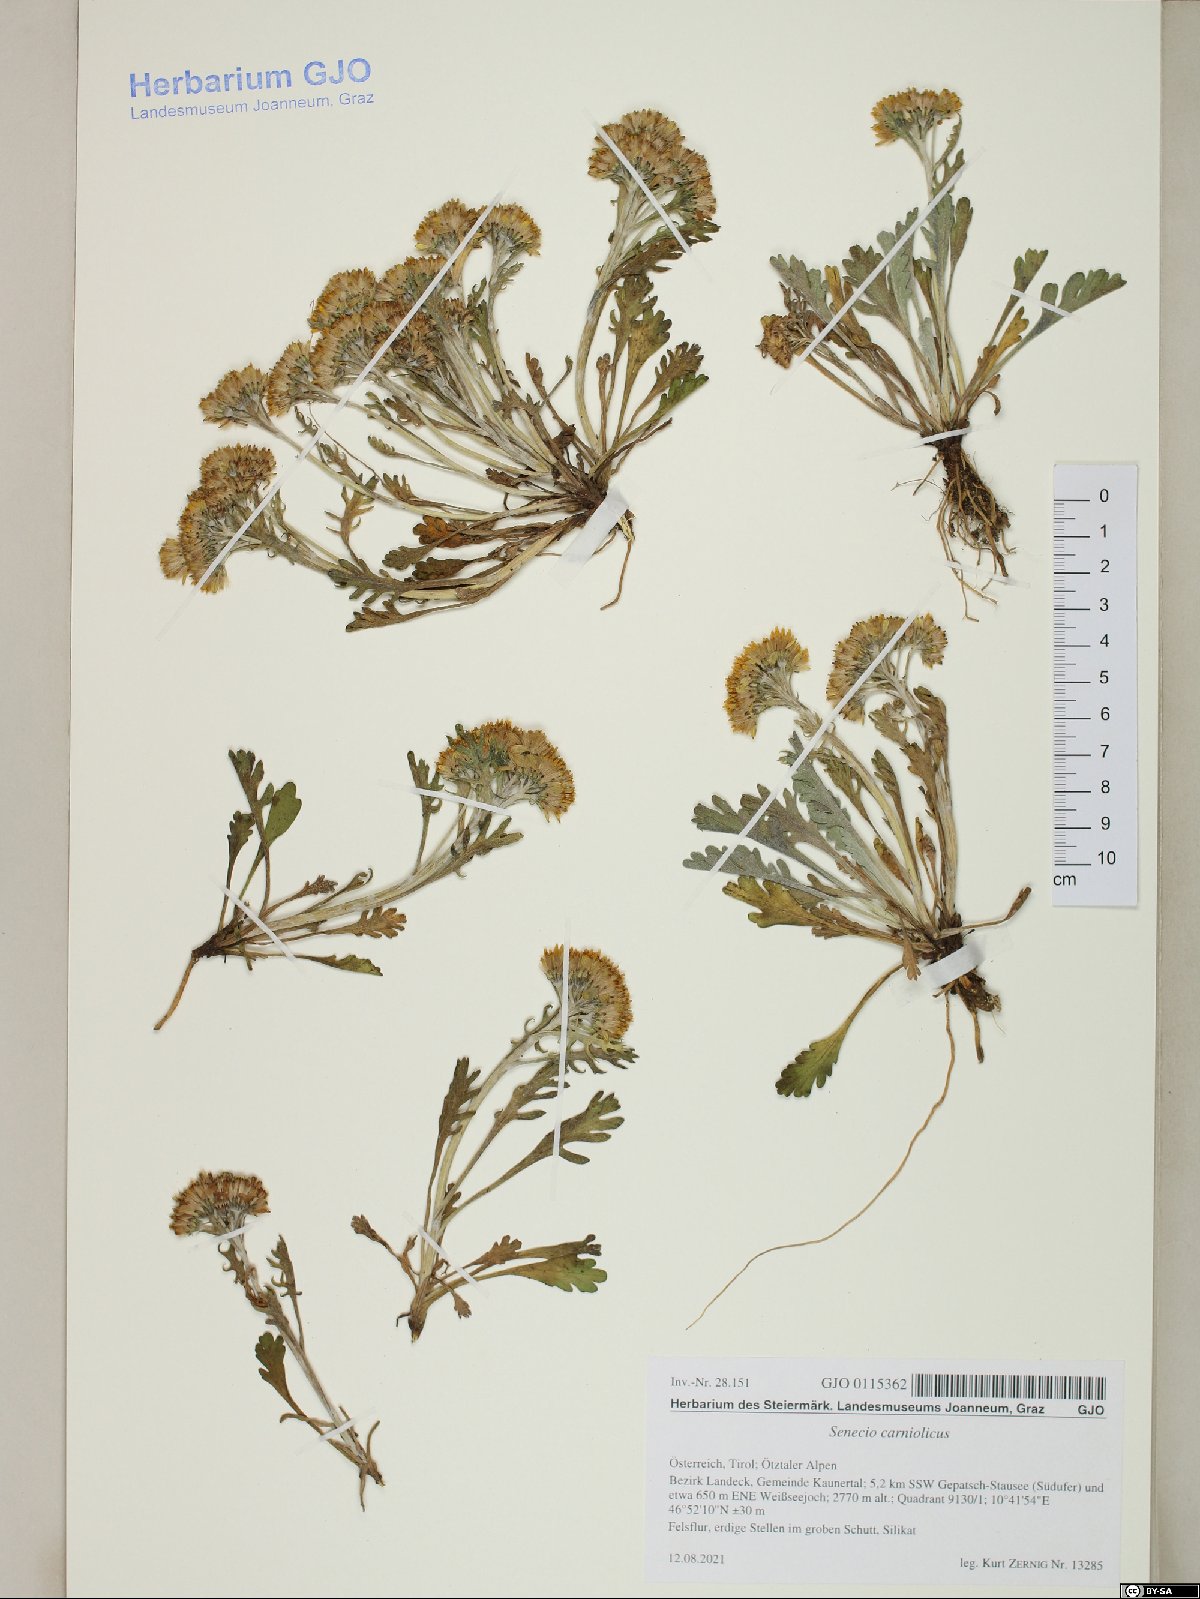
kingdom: Plantae
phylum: Tracheophyta
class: Magnoliopsida
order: Asterales
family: Asteraceae
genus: Jacobaea
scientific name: Jacobaea carniolica
